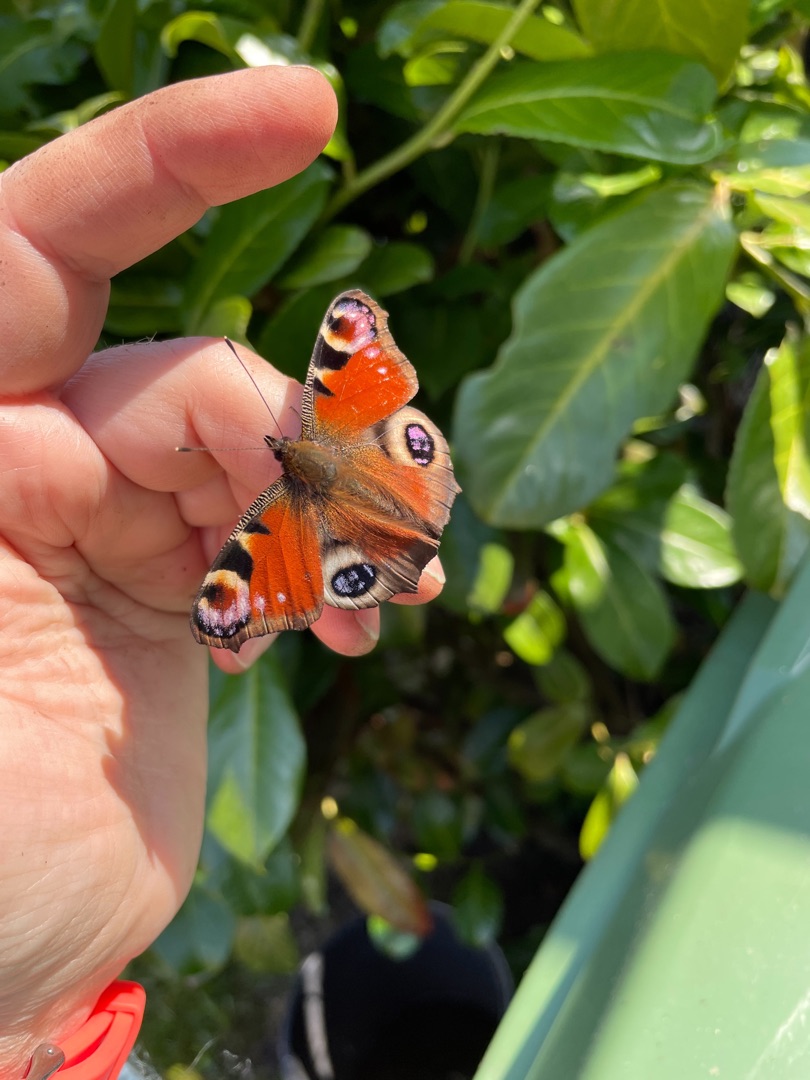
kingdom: Animalia
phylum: Arthropoda
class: Insecta
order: Lepidoptera
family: Nymphalidae
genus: Aglais
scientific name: Aglais io
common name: Dagpåfugleøje
